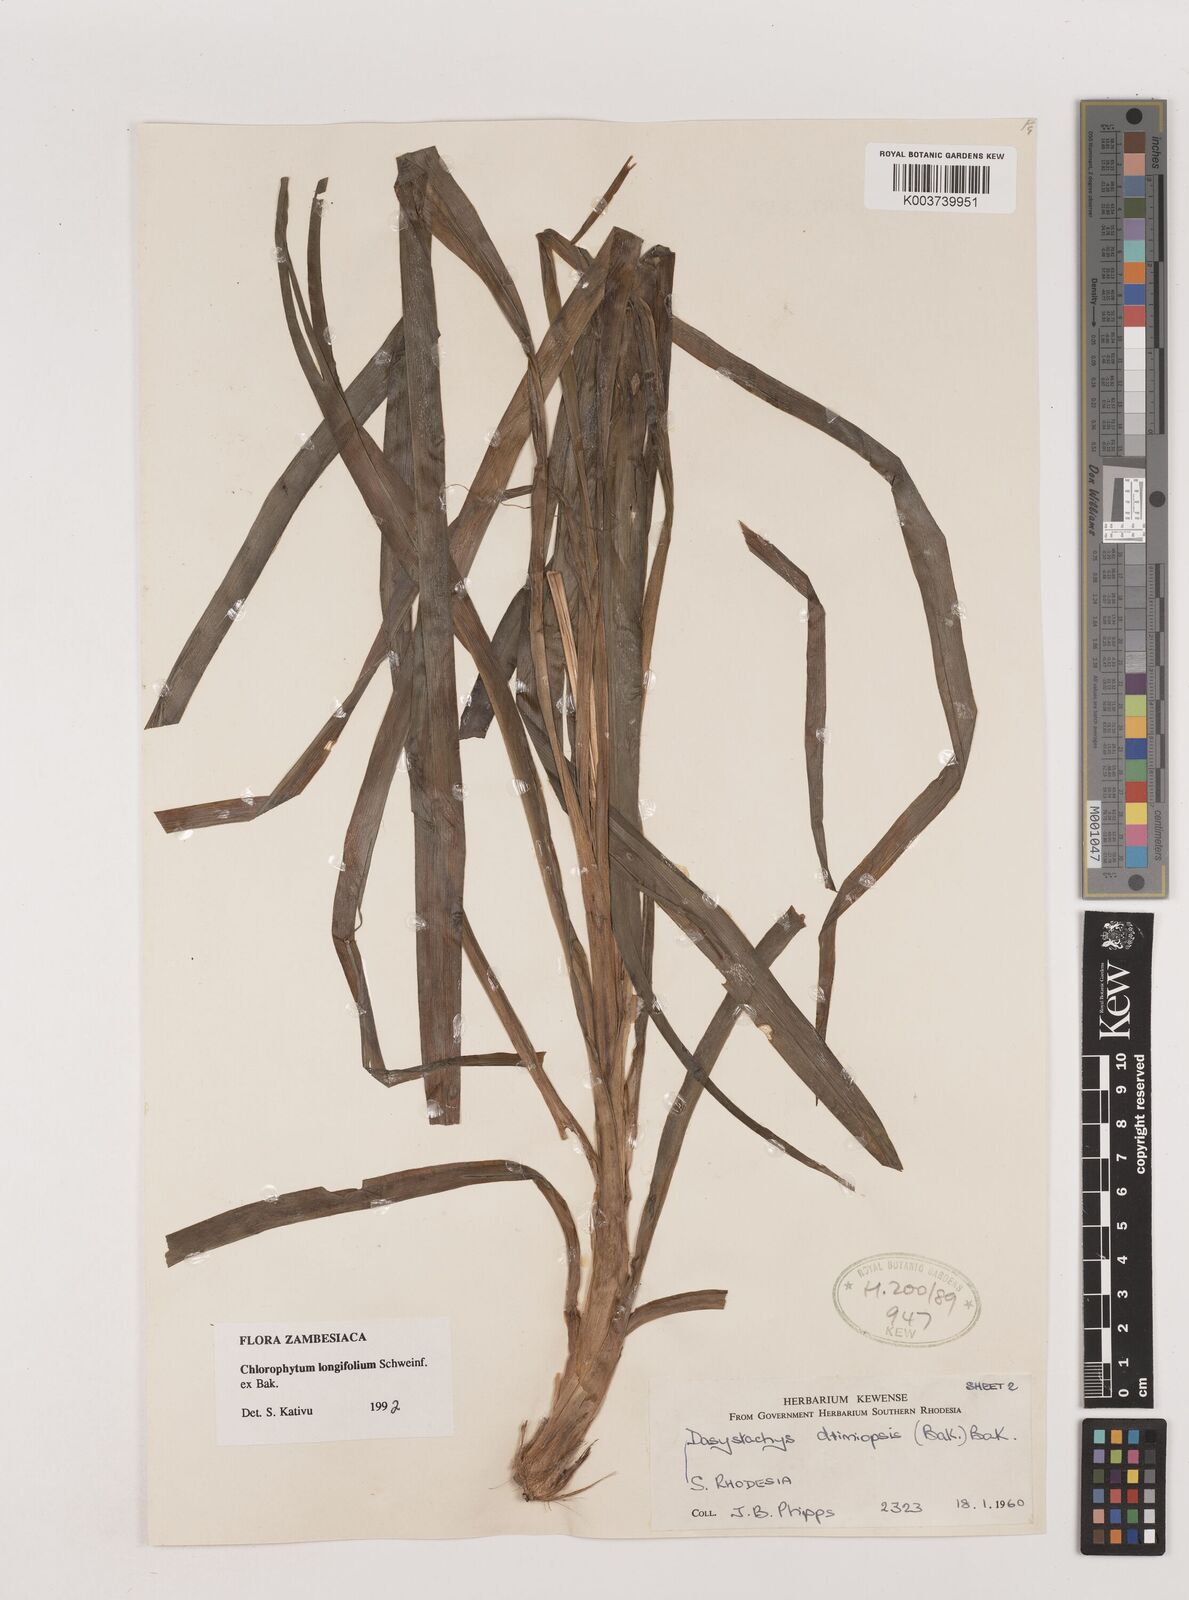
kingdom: Plantae
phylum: Tracheophyta
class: Liliopsida
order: Asparagales
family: Asparagaceae
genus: Chlorophytum
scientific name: Chlorophytum longifolium
